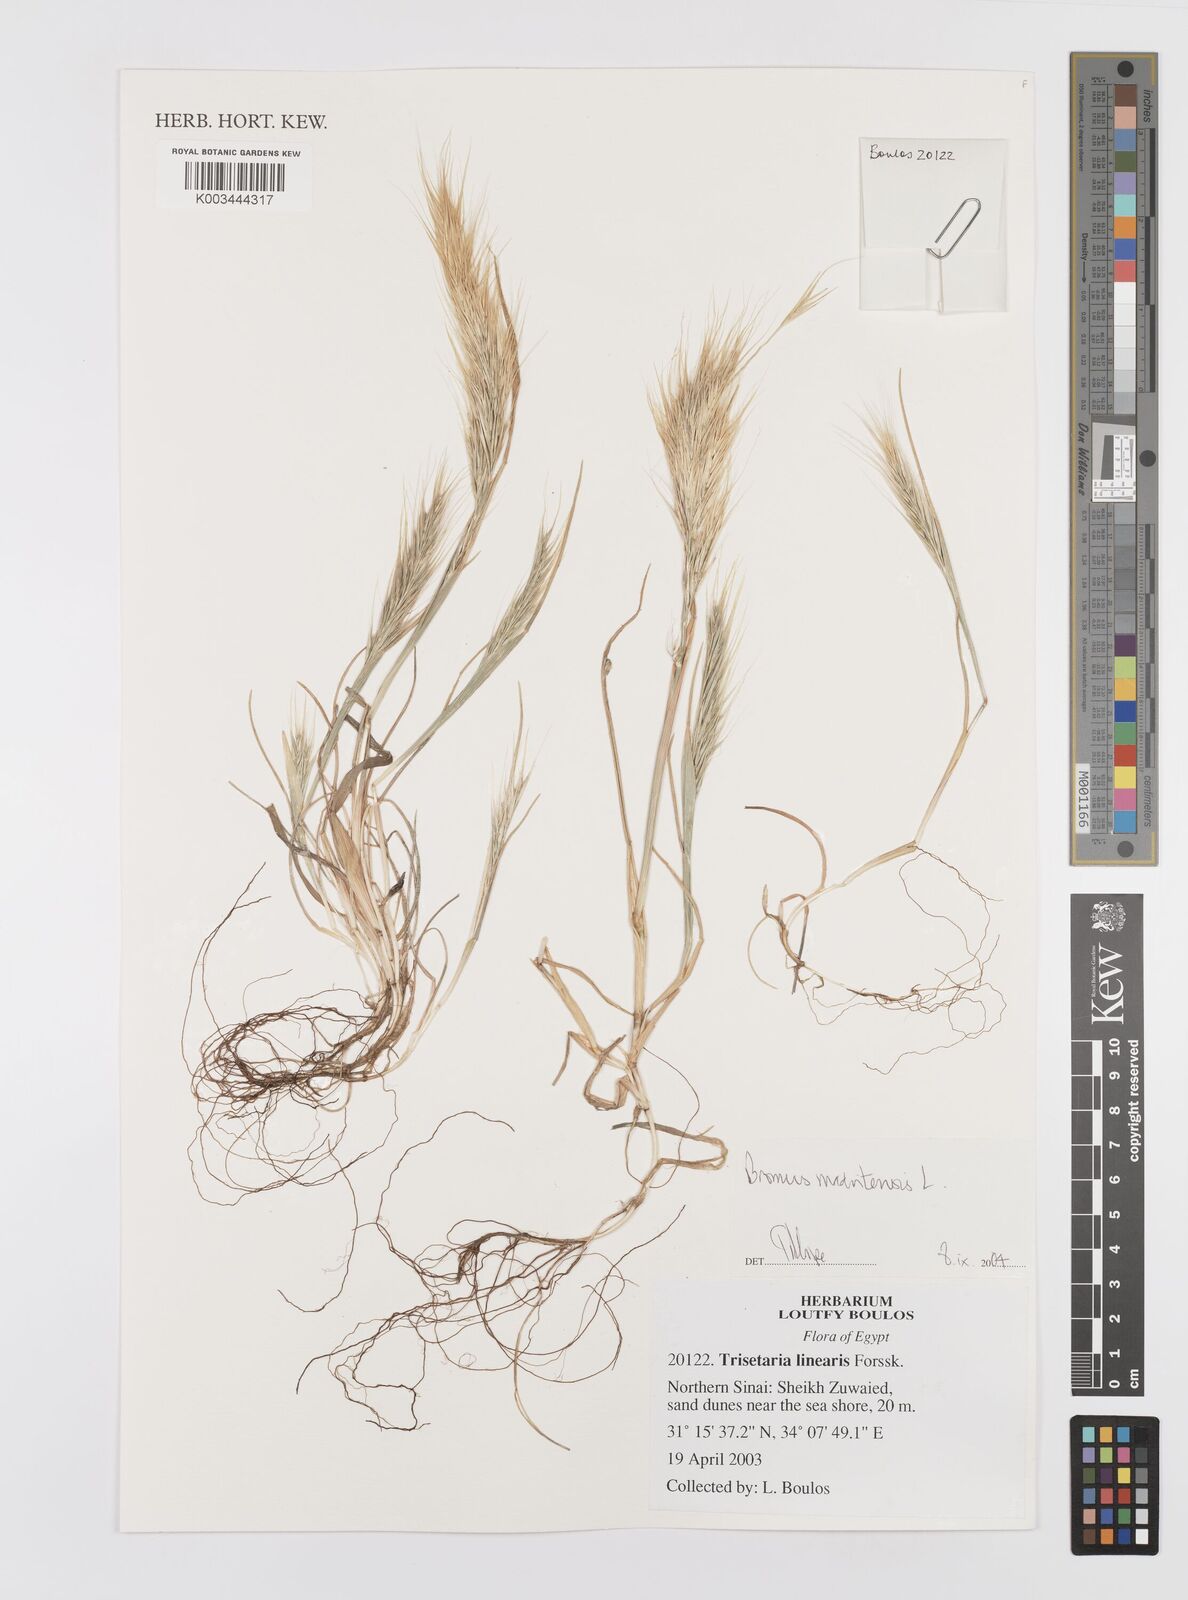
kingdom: Plantae
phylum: Tracheophyta
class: Liliopsida
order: Poales
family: Poaceae
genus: Bromus
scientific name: Bromus madritensis
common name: Compact brome
